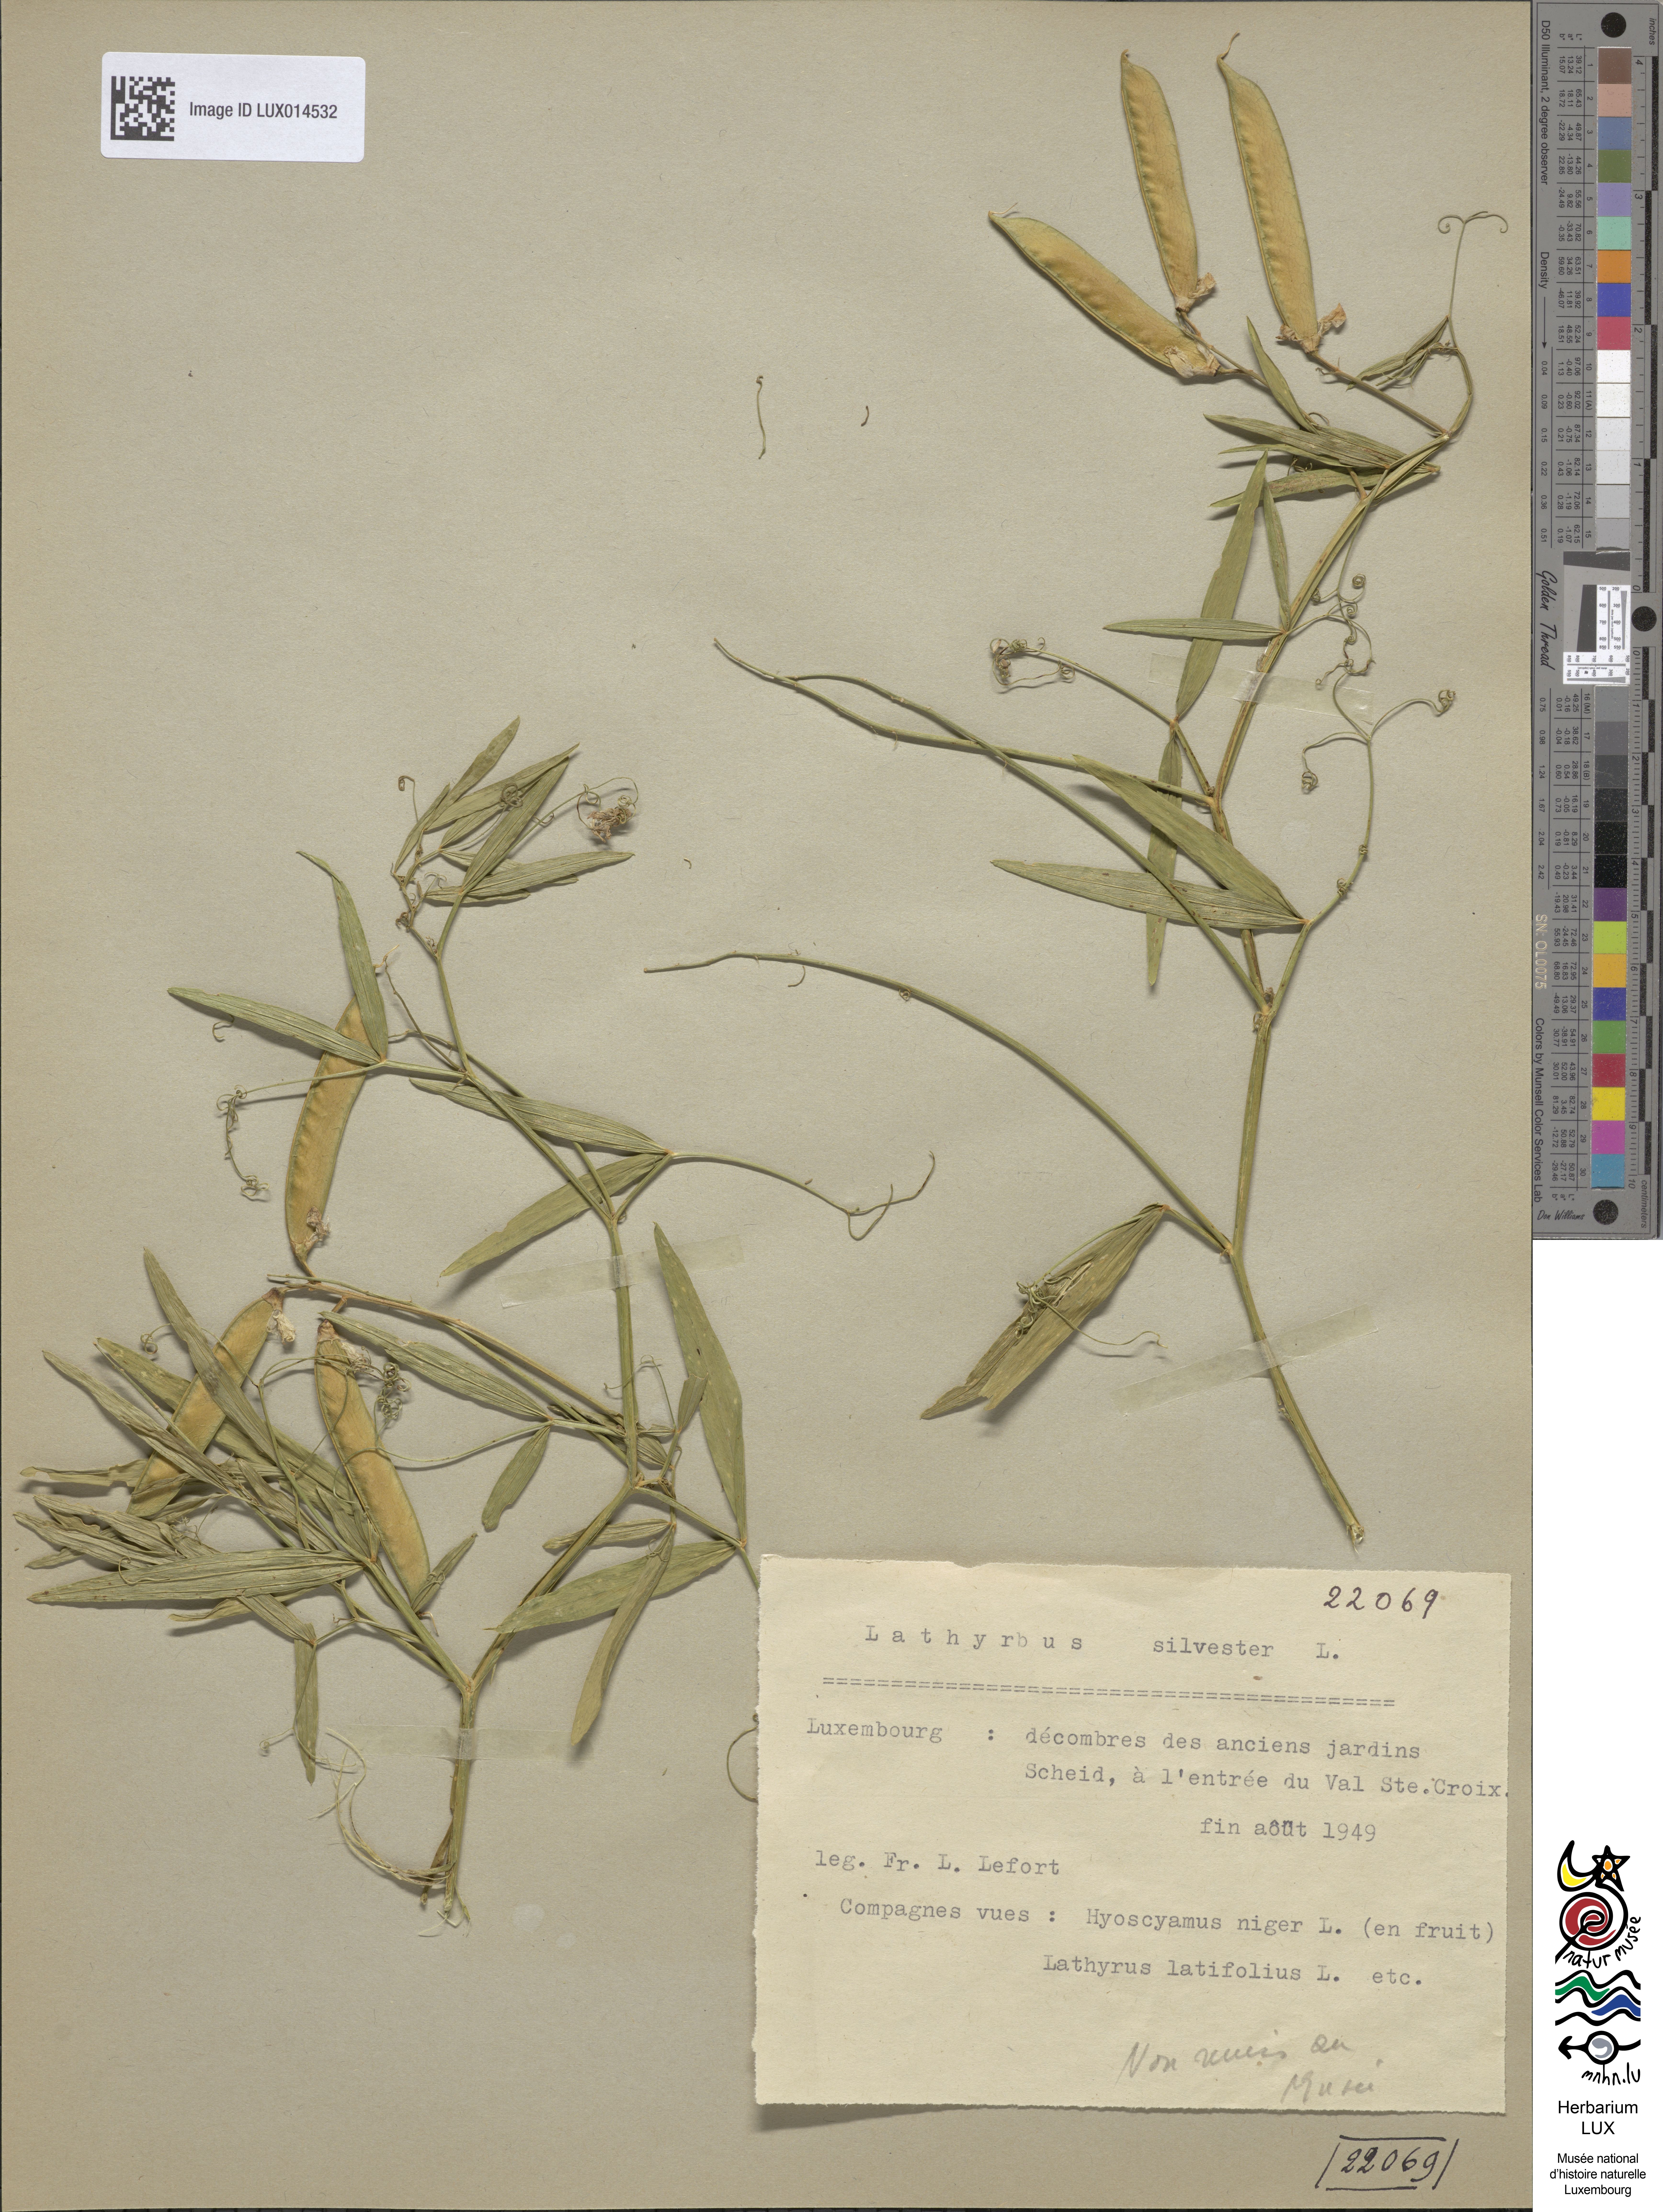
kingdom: Plantae
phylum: Tracheophyta
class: Magnoliopsida
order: Fabales
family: Fabaceae
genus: Lathyrus
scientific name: Lathyrus sylvestris
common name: Flat pea
